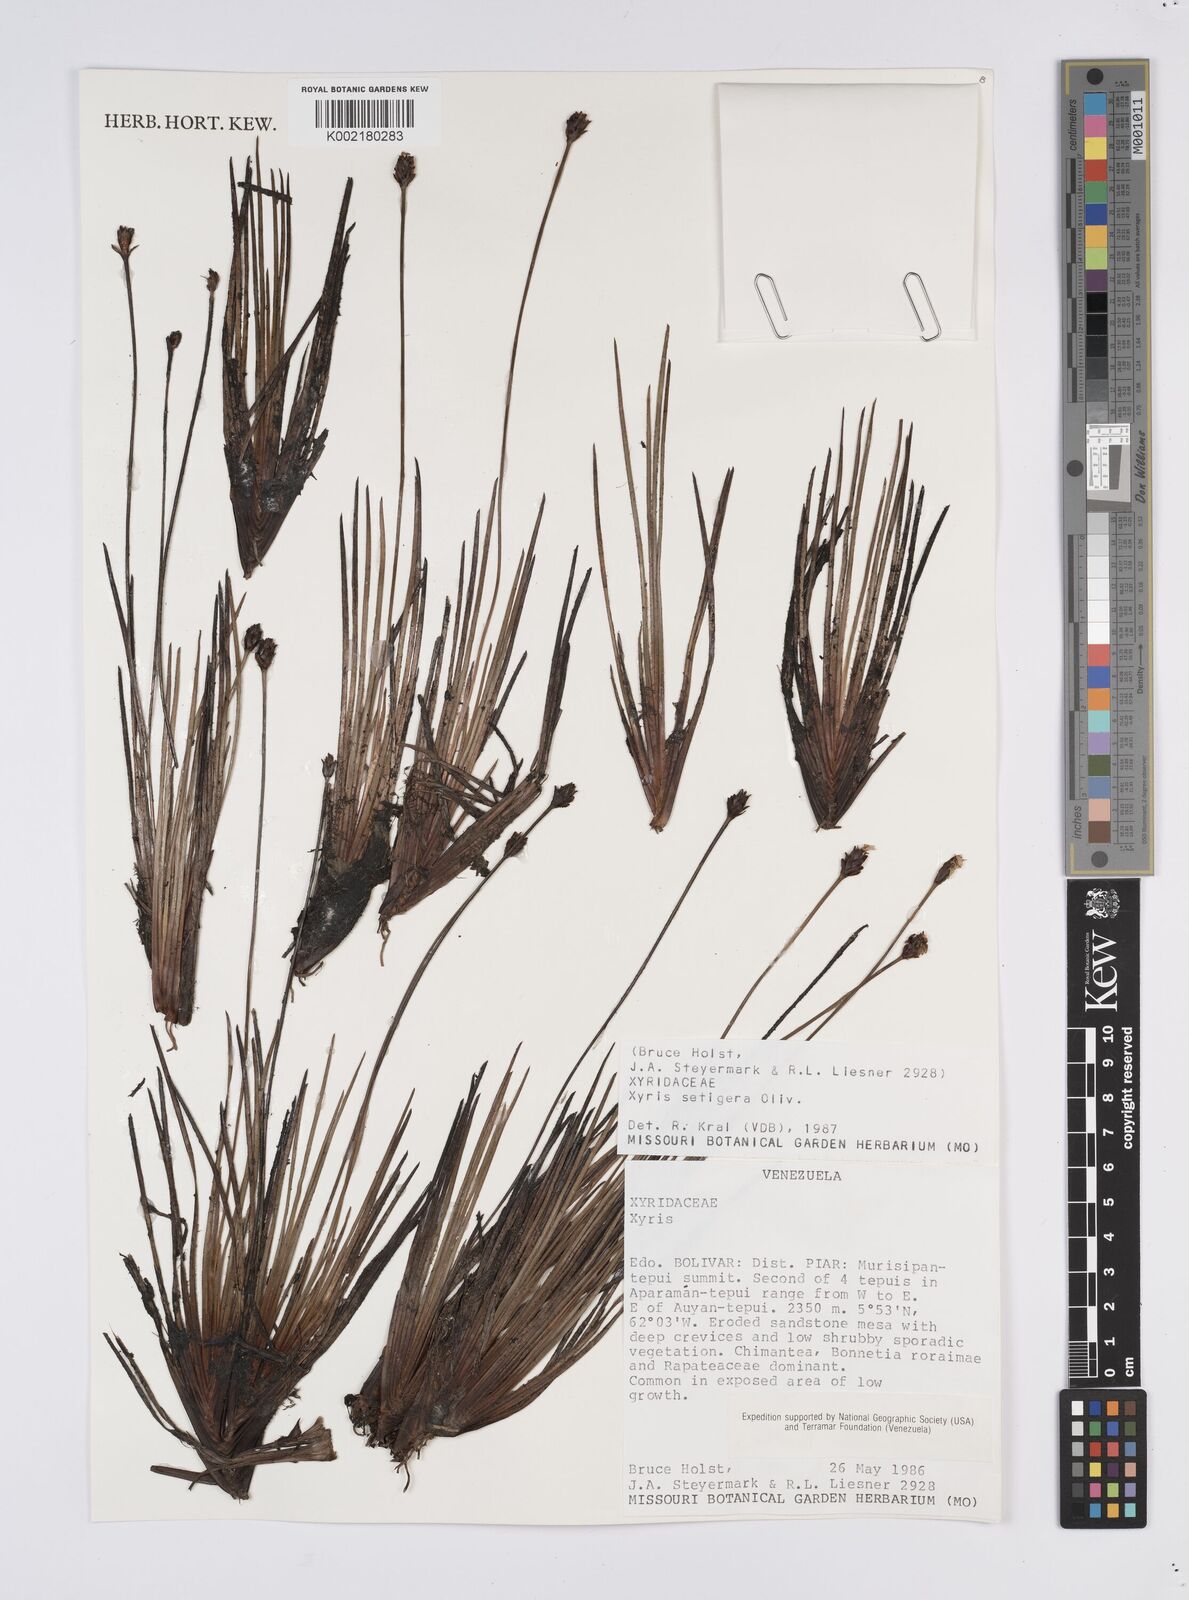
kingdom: Plantae
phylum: Tracheophyta
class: Liliopsida
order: Poales
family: Xyridaceae
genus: Xyris
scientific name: Xyris setigera
